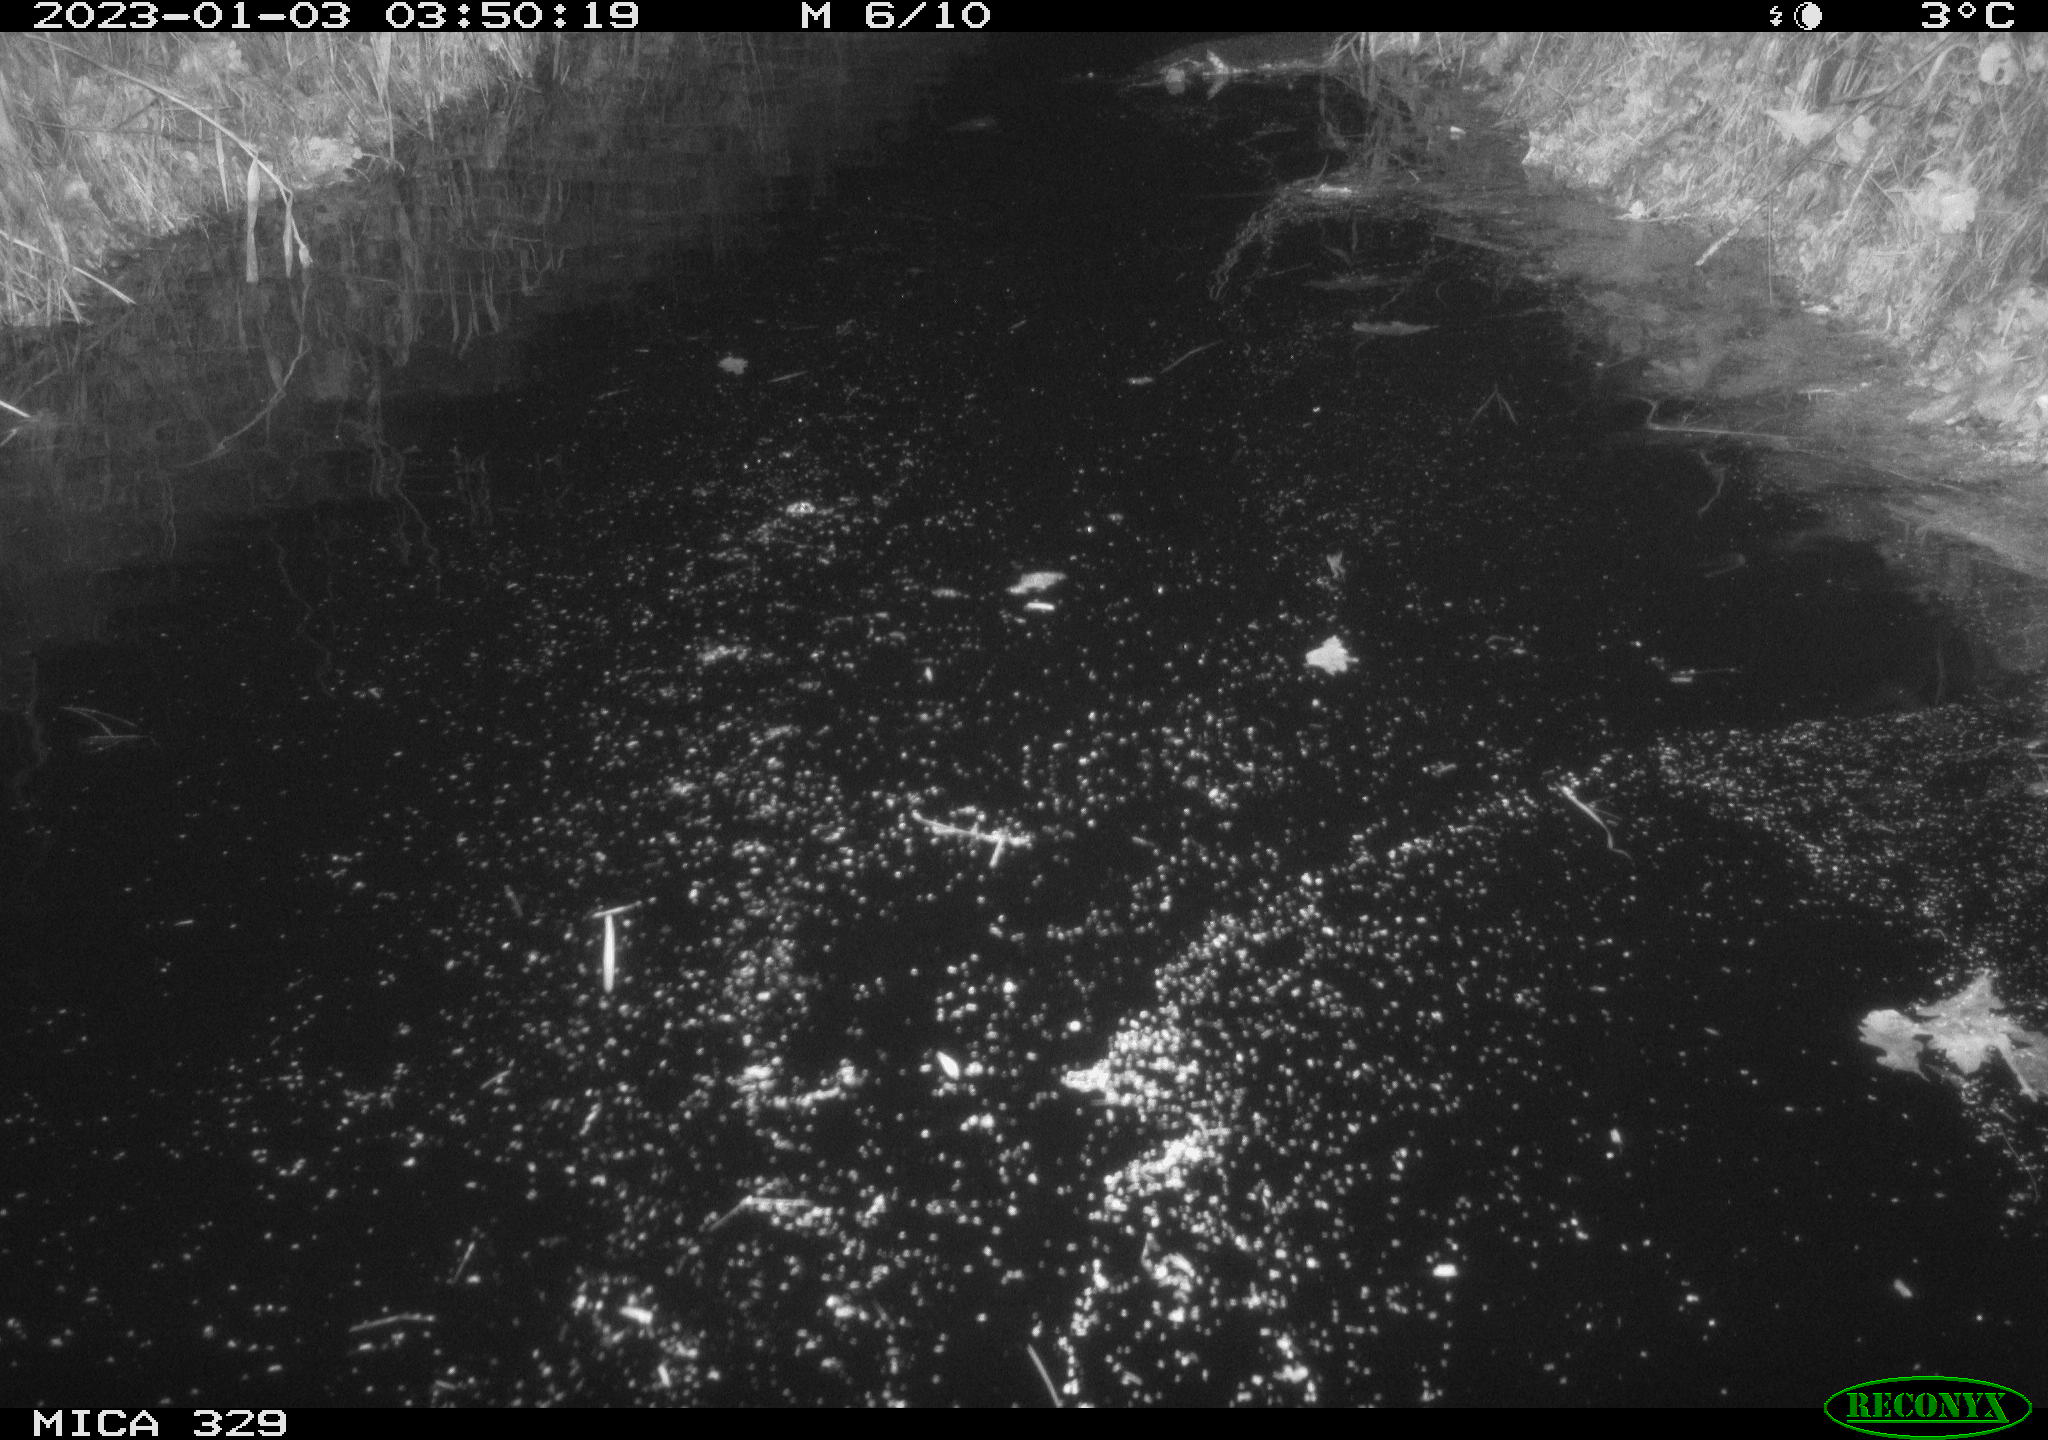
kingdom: Animalia
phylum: Chordata
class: Mammalia
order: Rodentia
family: Cricetidae
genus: Ondatra
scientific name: Ondatra zibethicus
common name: Muskrat
